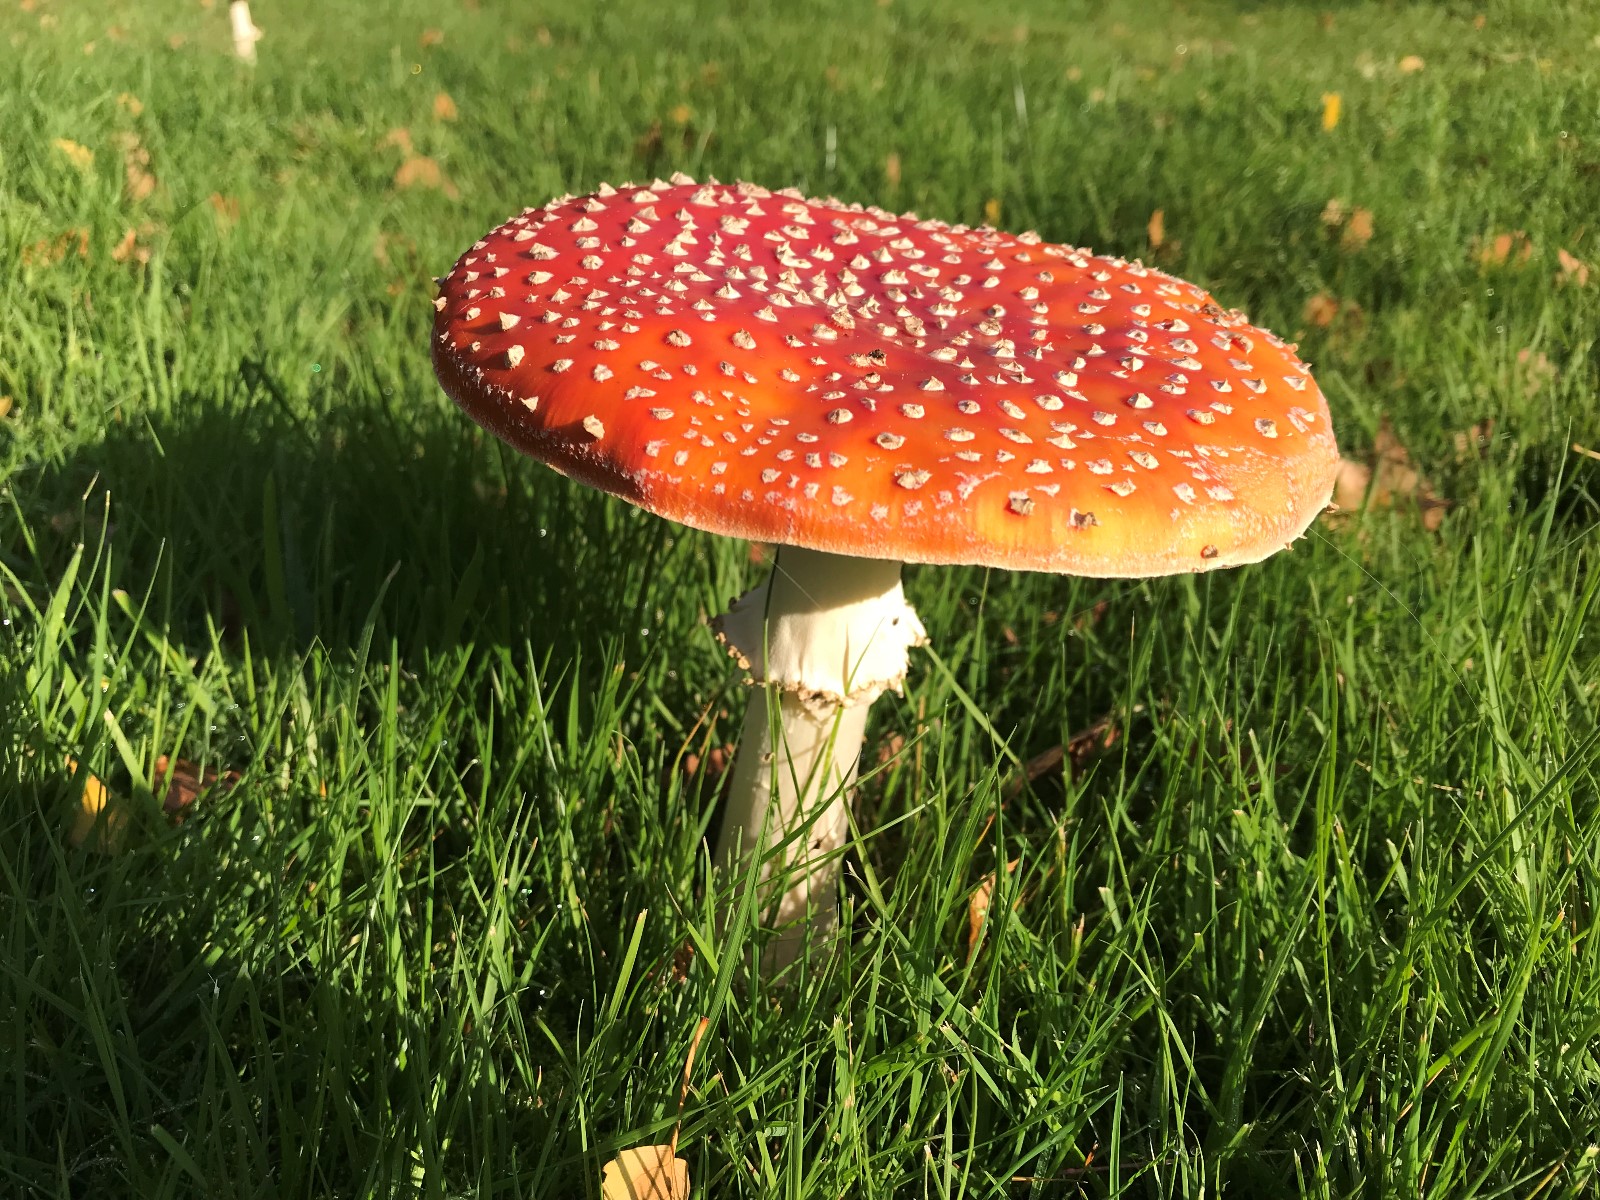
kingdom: Fungi
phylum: Basidiomycota
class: Agaricomycetes
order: Agaricales
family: Amanitaceae
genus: Amanita
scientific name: Amanita muscaria
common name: rød fluesvamp
